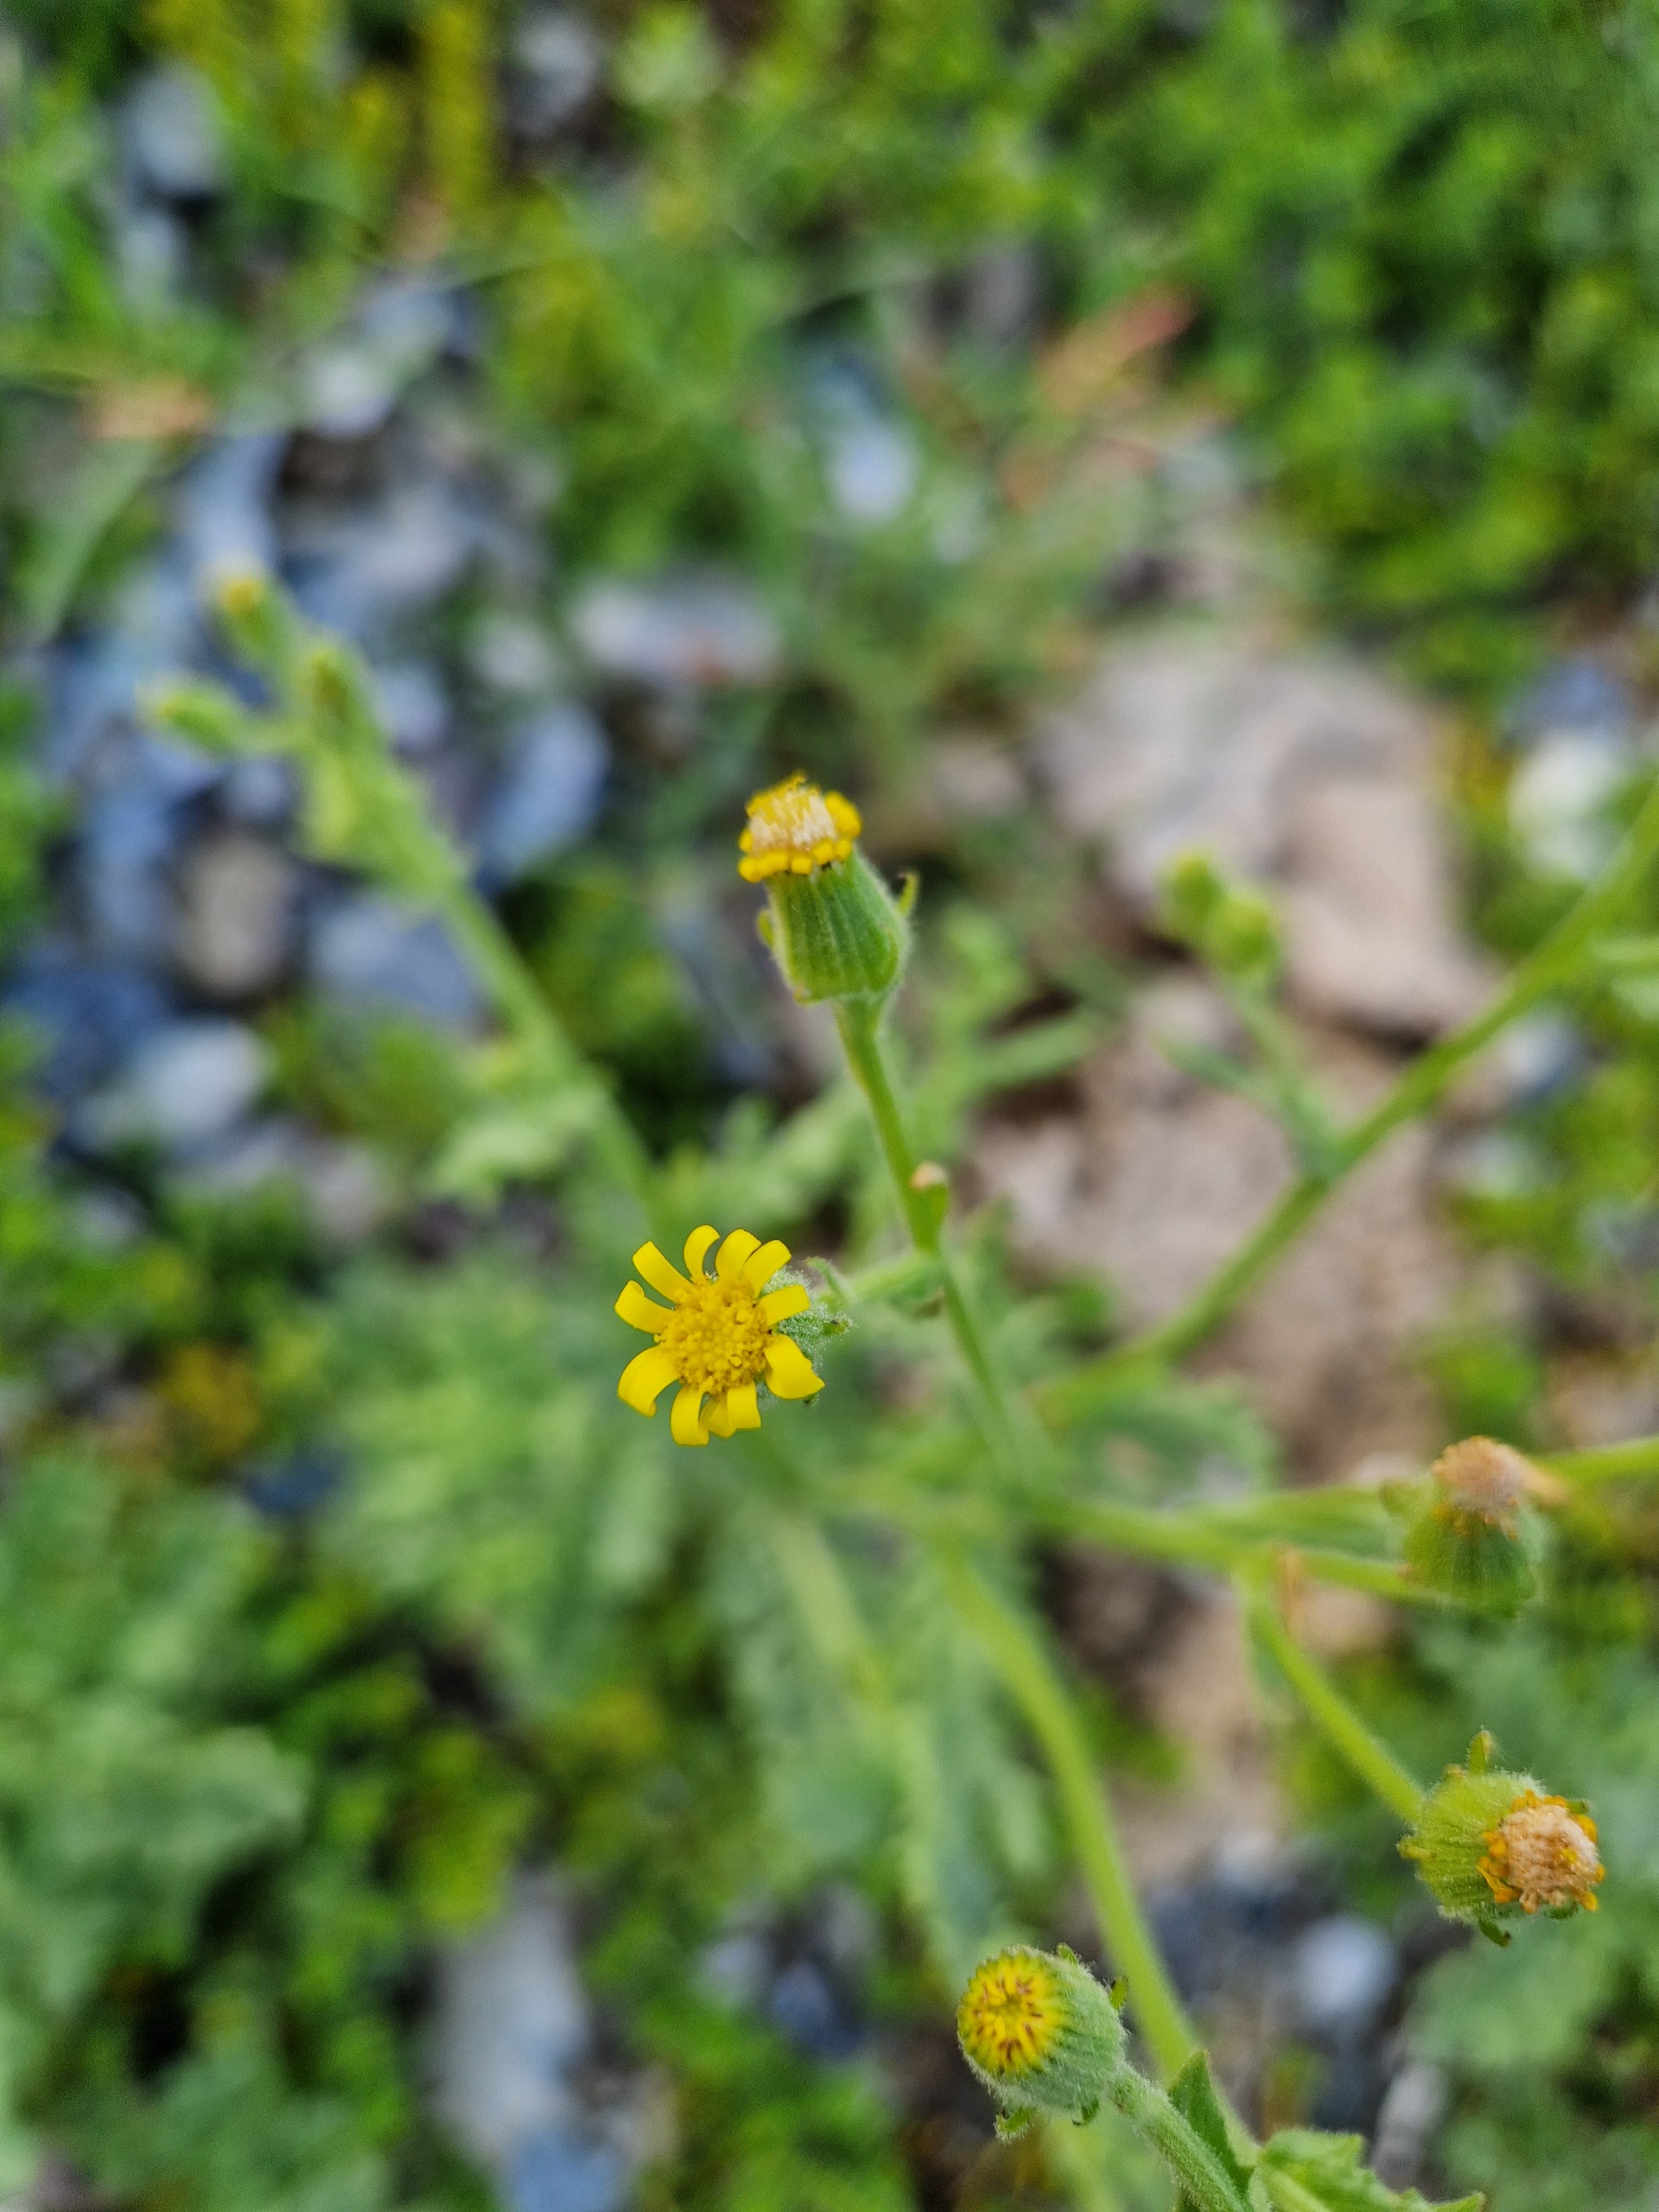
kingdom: Plantae
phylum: Tracheophyta
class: Magnoliopsida
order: Asterales
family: Asteraceae
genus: Senecio
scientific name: Senecio viscosus
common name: Klæbrig brandbæger
